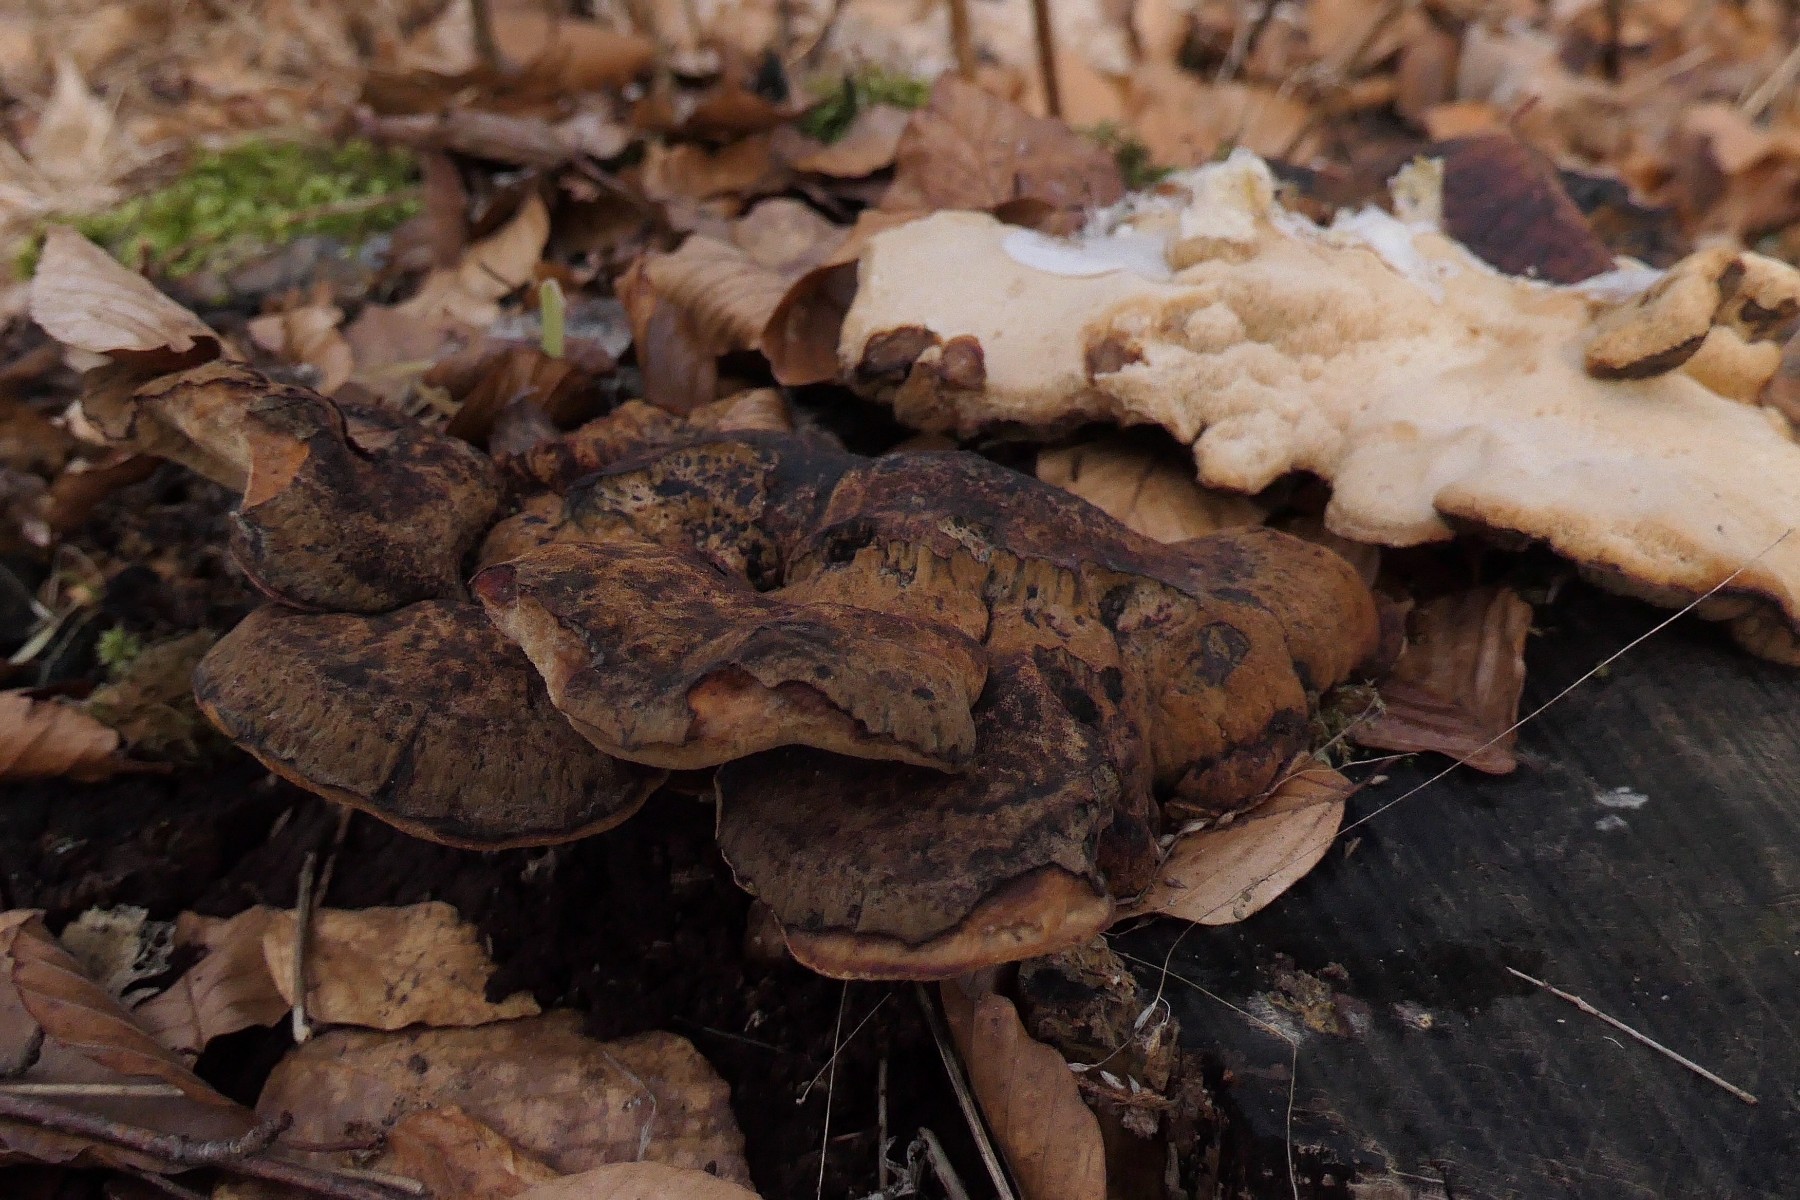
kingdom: Fungi
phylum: Basidiomycota
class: Agaricomycetes
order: Polyporales
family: Ischnodermataceae
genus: Ischnoderma
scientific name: Ischnoderma resinosum
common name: løv-tjæreporesvamp
